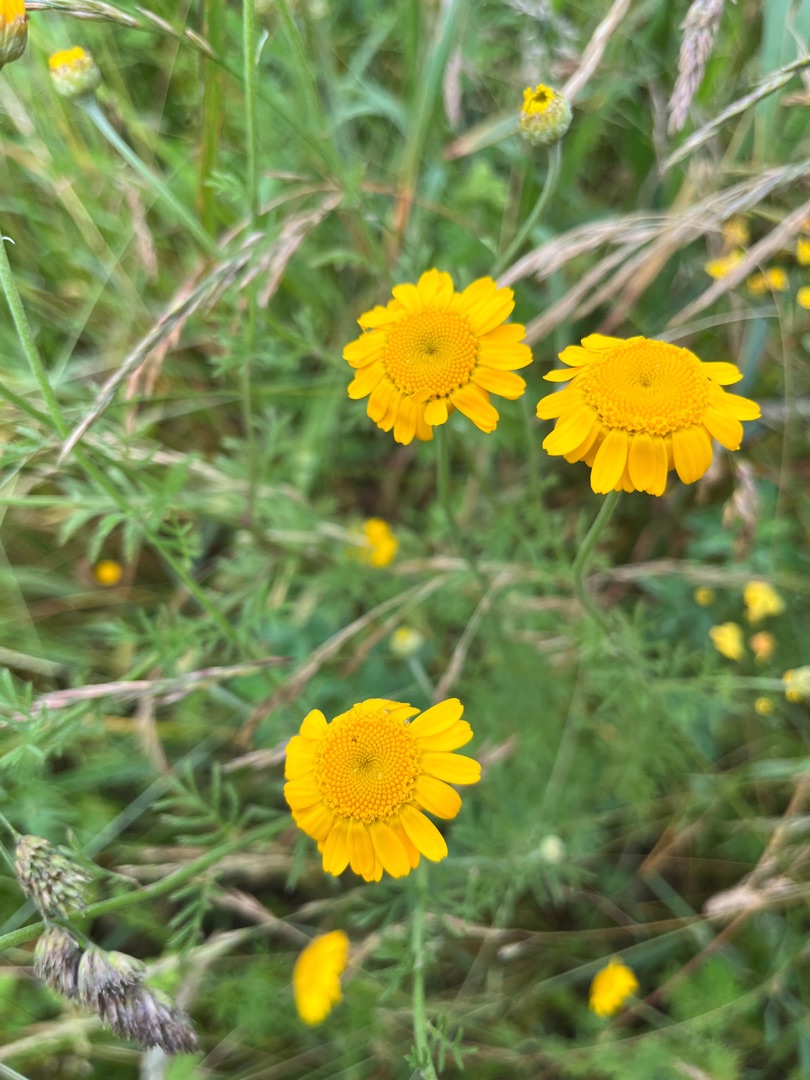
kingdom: Plantae
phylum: Tracheophyta
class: Magnoliopsida
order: Asterales
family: Asteraceae
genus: Cota
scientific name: Cota tinctoria
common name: Farve-gåseurt
